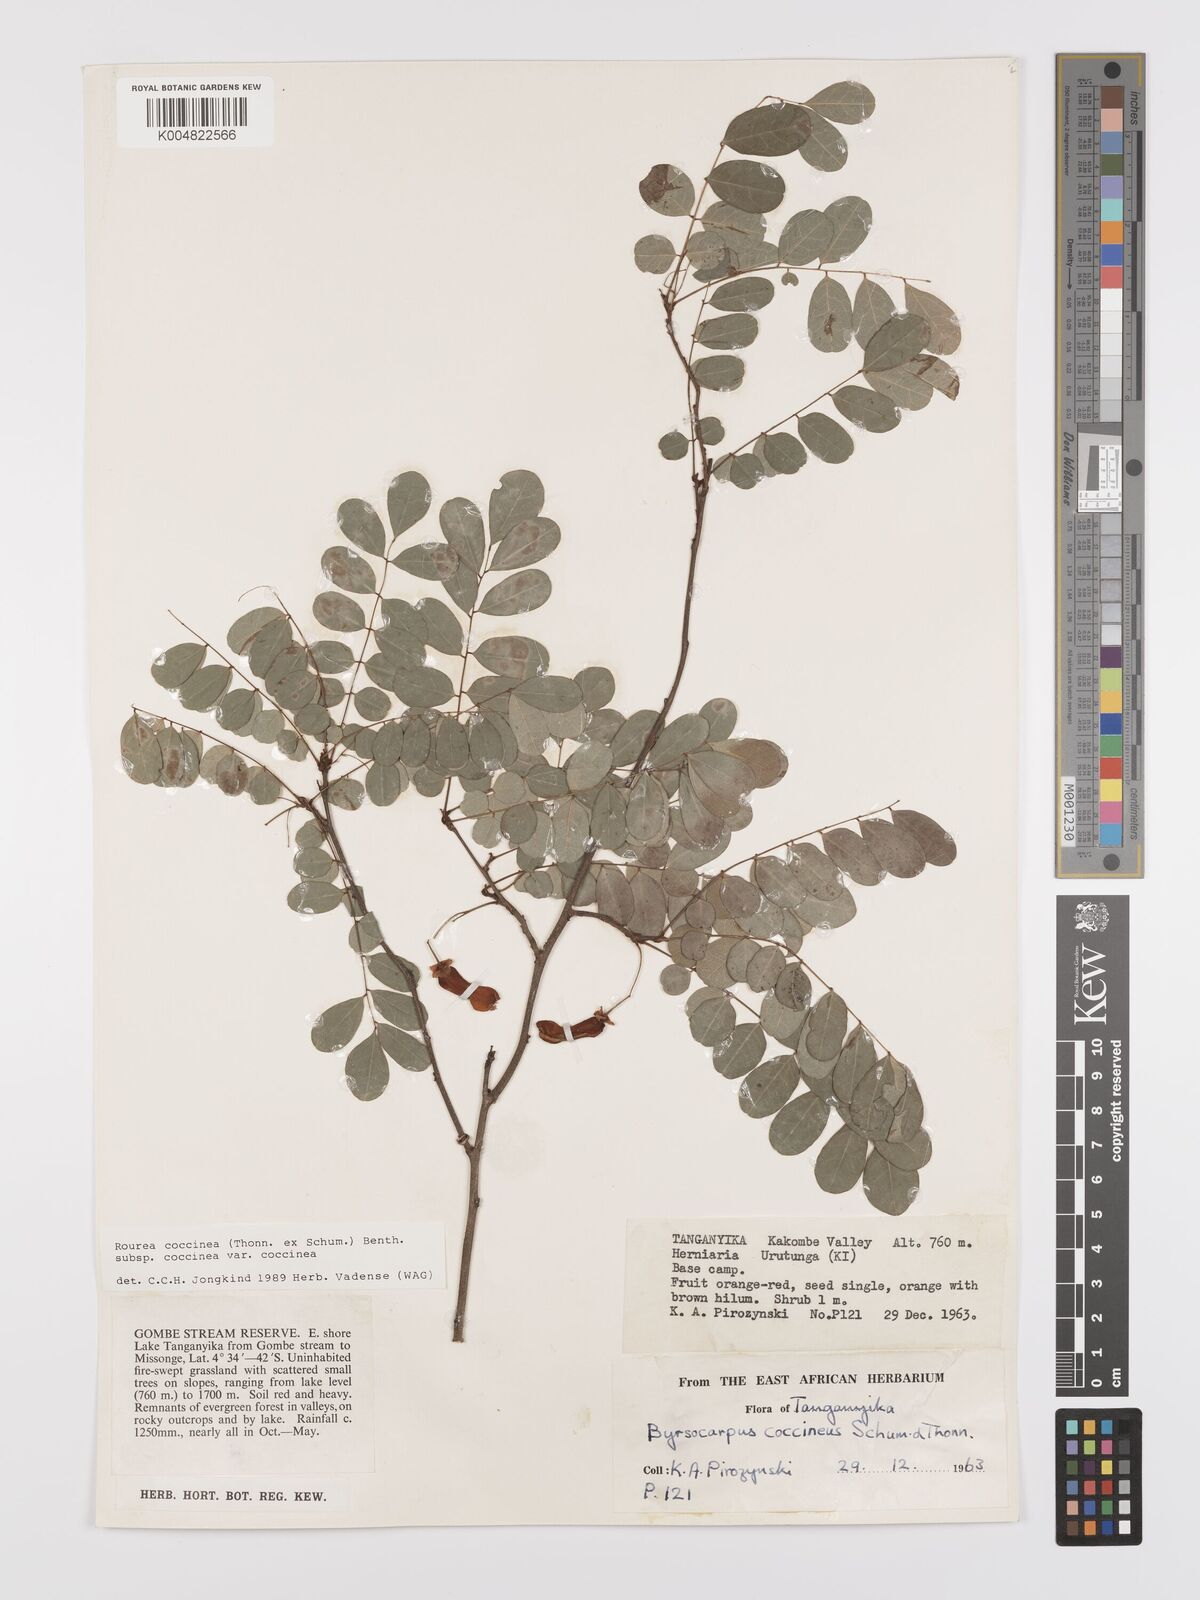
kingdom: Plantae
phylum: Tracheophyta
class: Magnoliopsida
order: Oxalidales
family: Connaraceae
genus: Rourea
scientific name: Rourea coccinea
